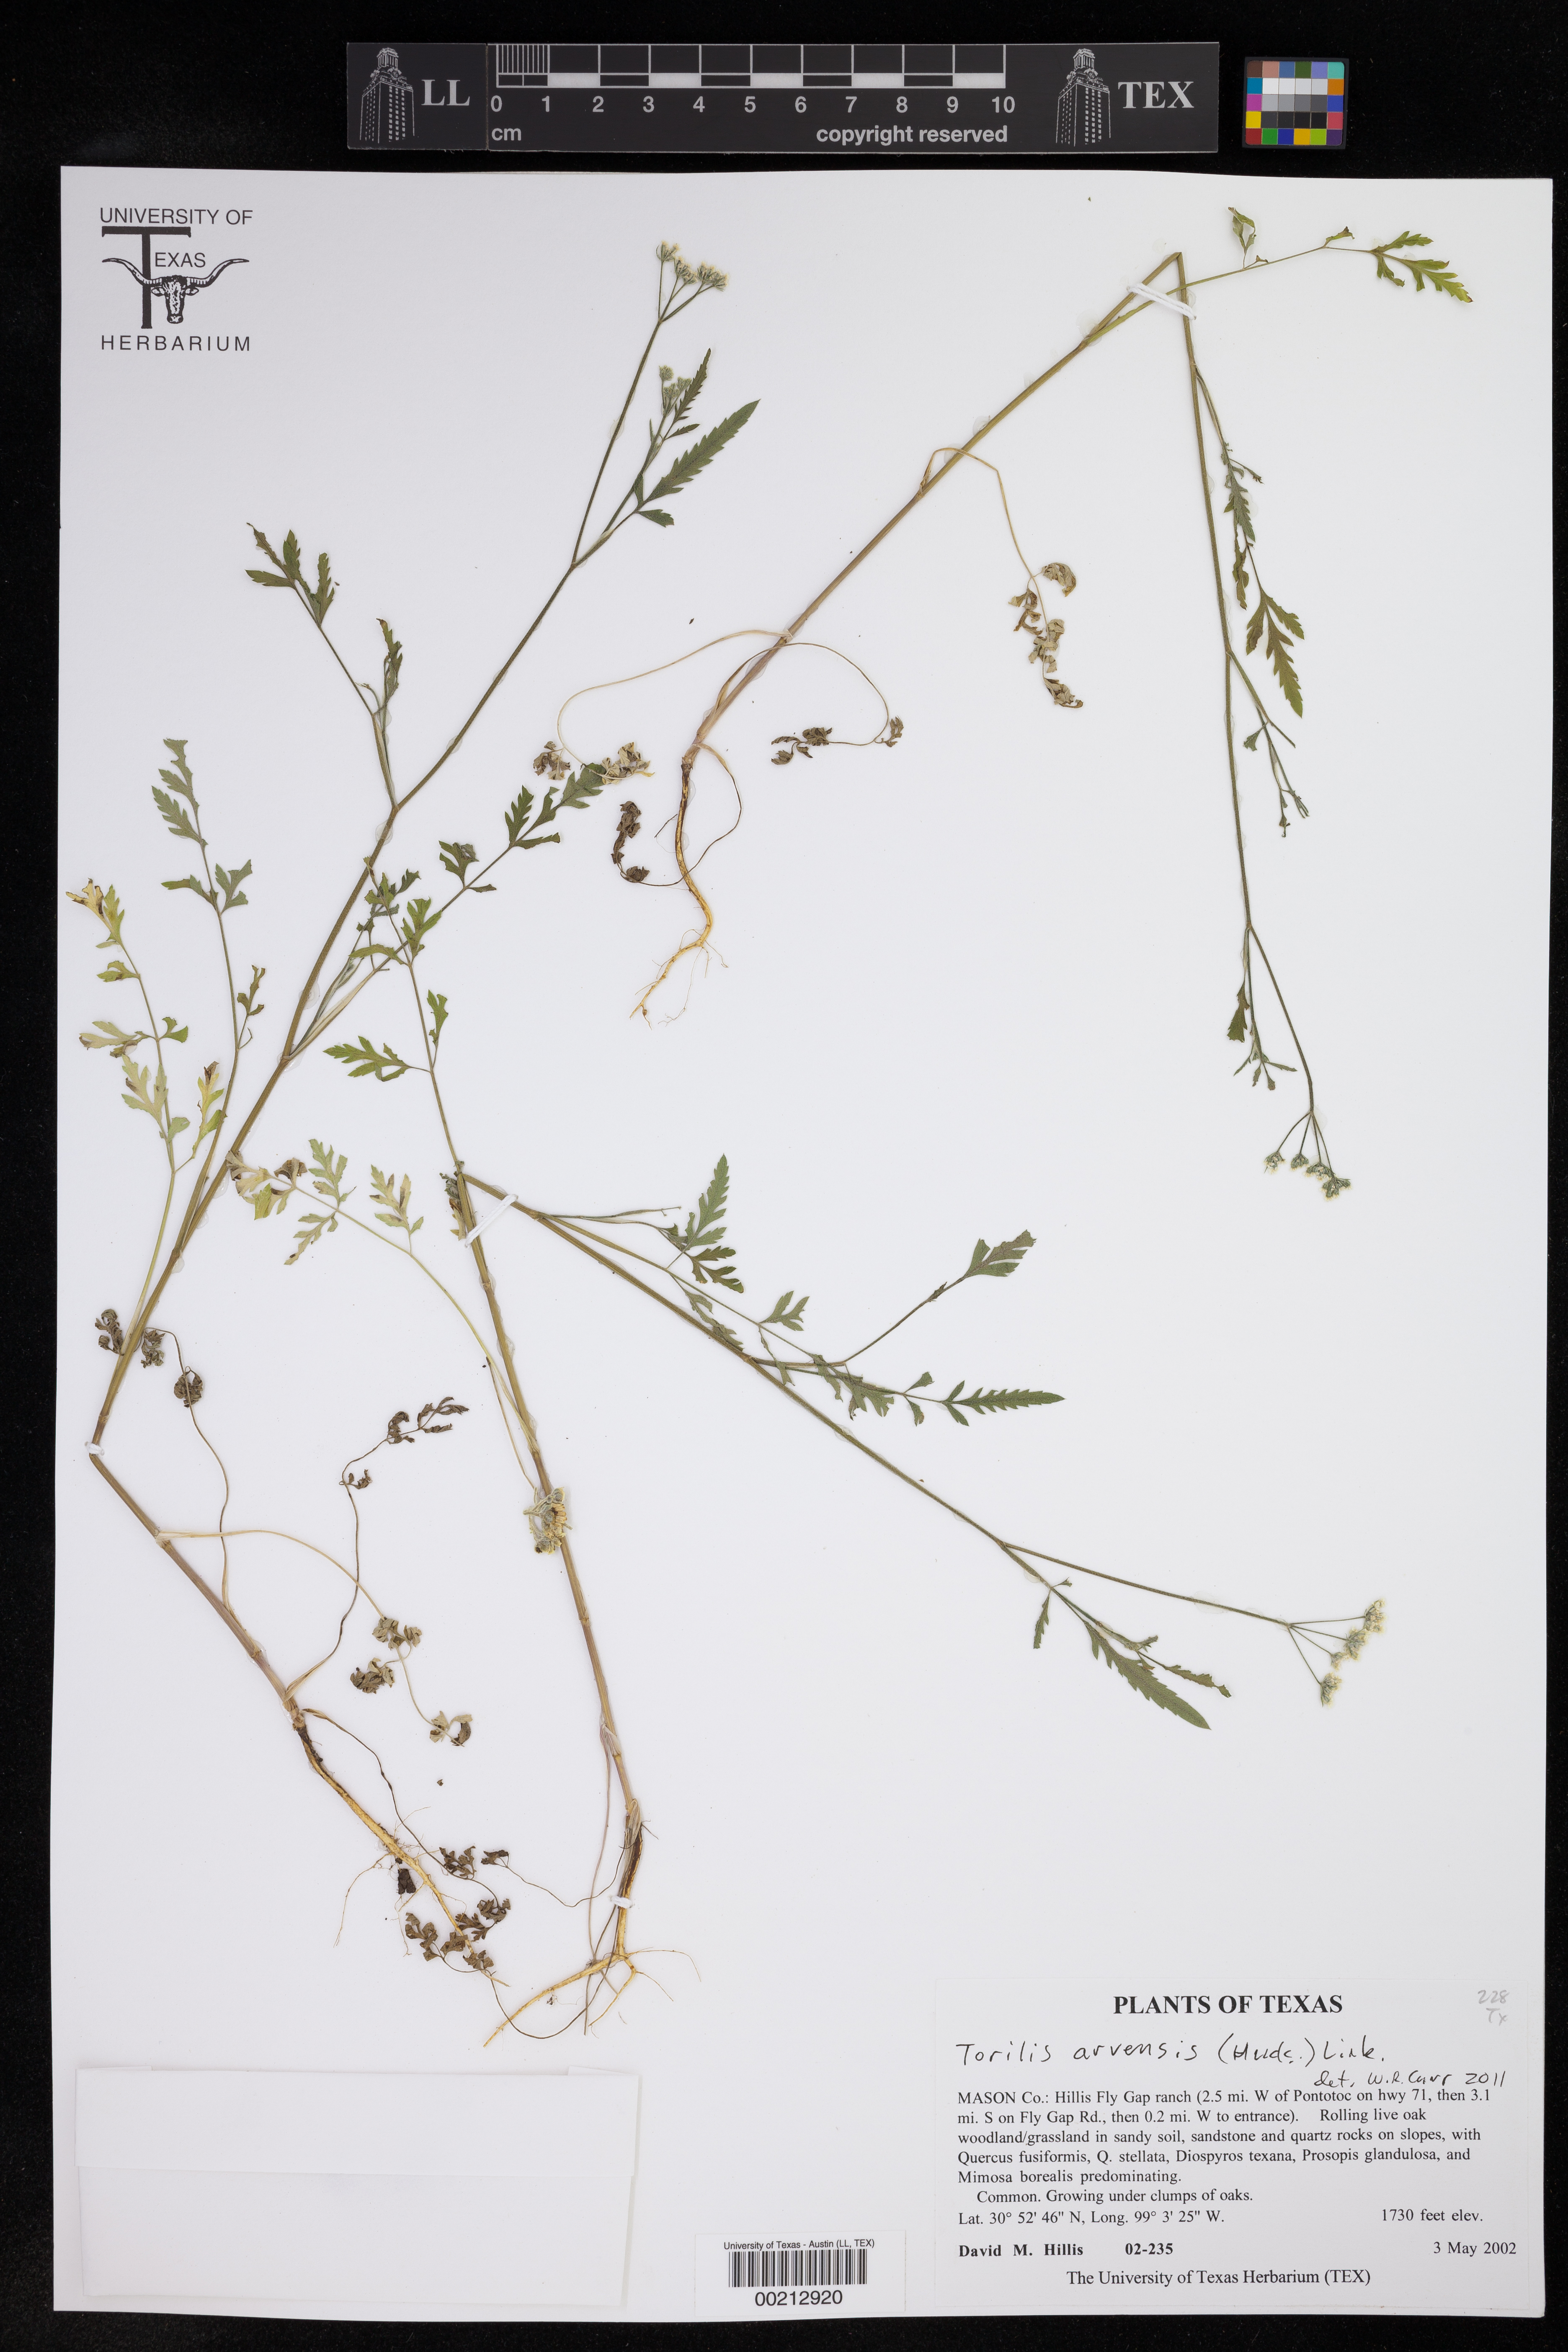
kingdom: Plantae
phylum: Tracheophyta
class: Magnoliopsida
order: Apiales
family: Apiaceae
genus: Torilis
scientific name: Torilis arvensis
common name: Spreading hedge-parsley
